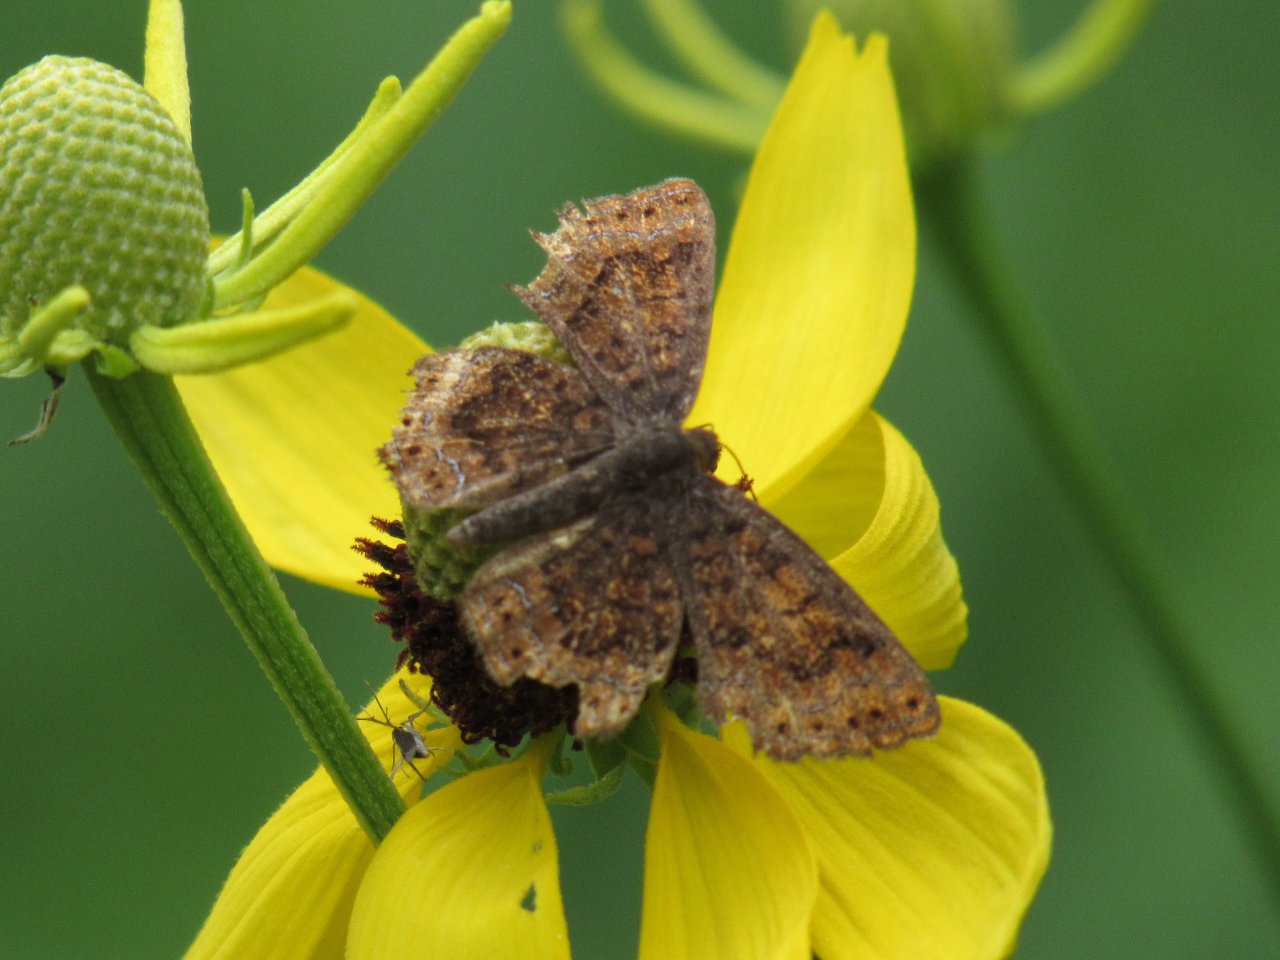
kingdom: Animalia
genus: Calephelis
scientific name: Calephelis borealis
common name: Northern Metalmark
